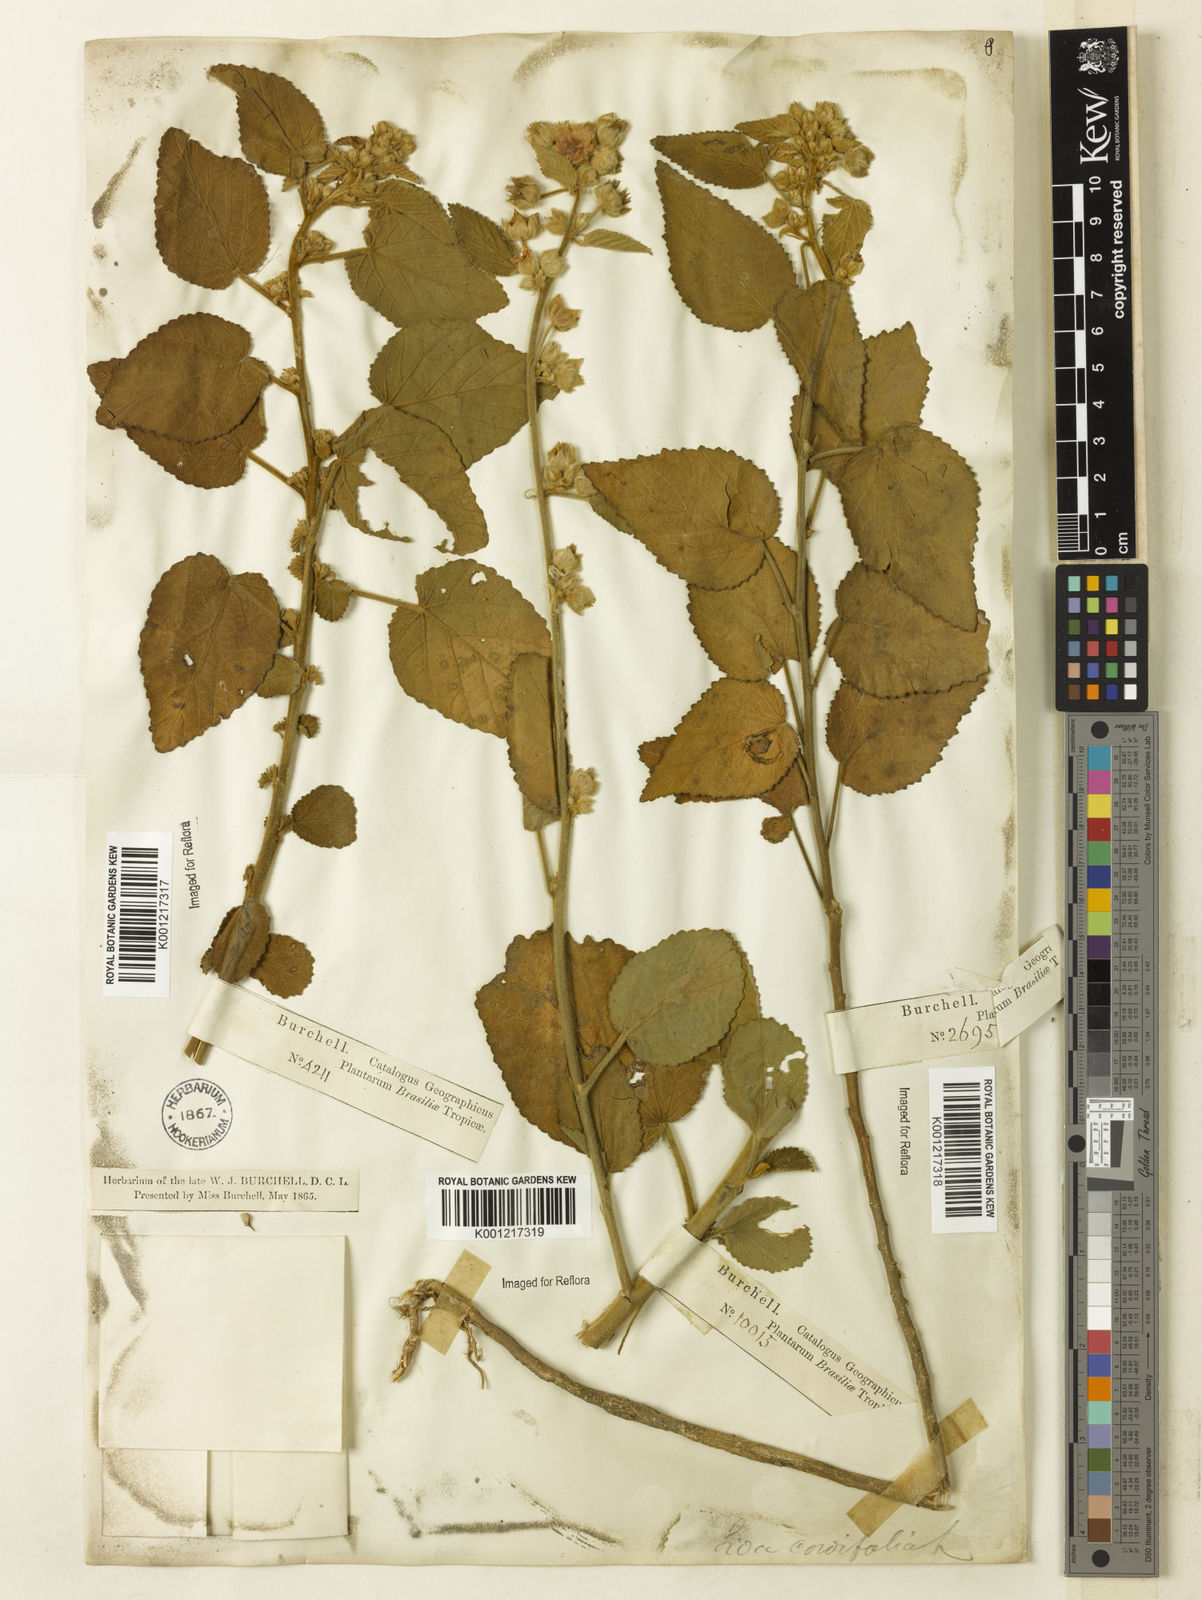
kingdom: Plantae
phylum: Tracheophyta
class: Magnoliopsida
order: Malvales
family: Malvaceae
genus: Sida
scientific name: Sida cordifolia
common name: Ilima
